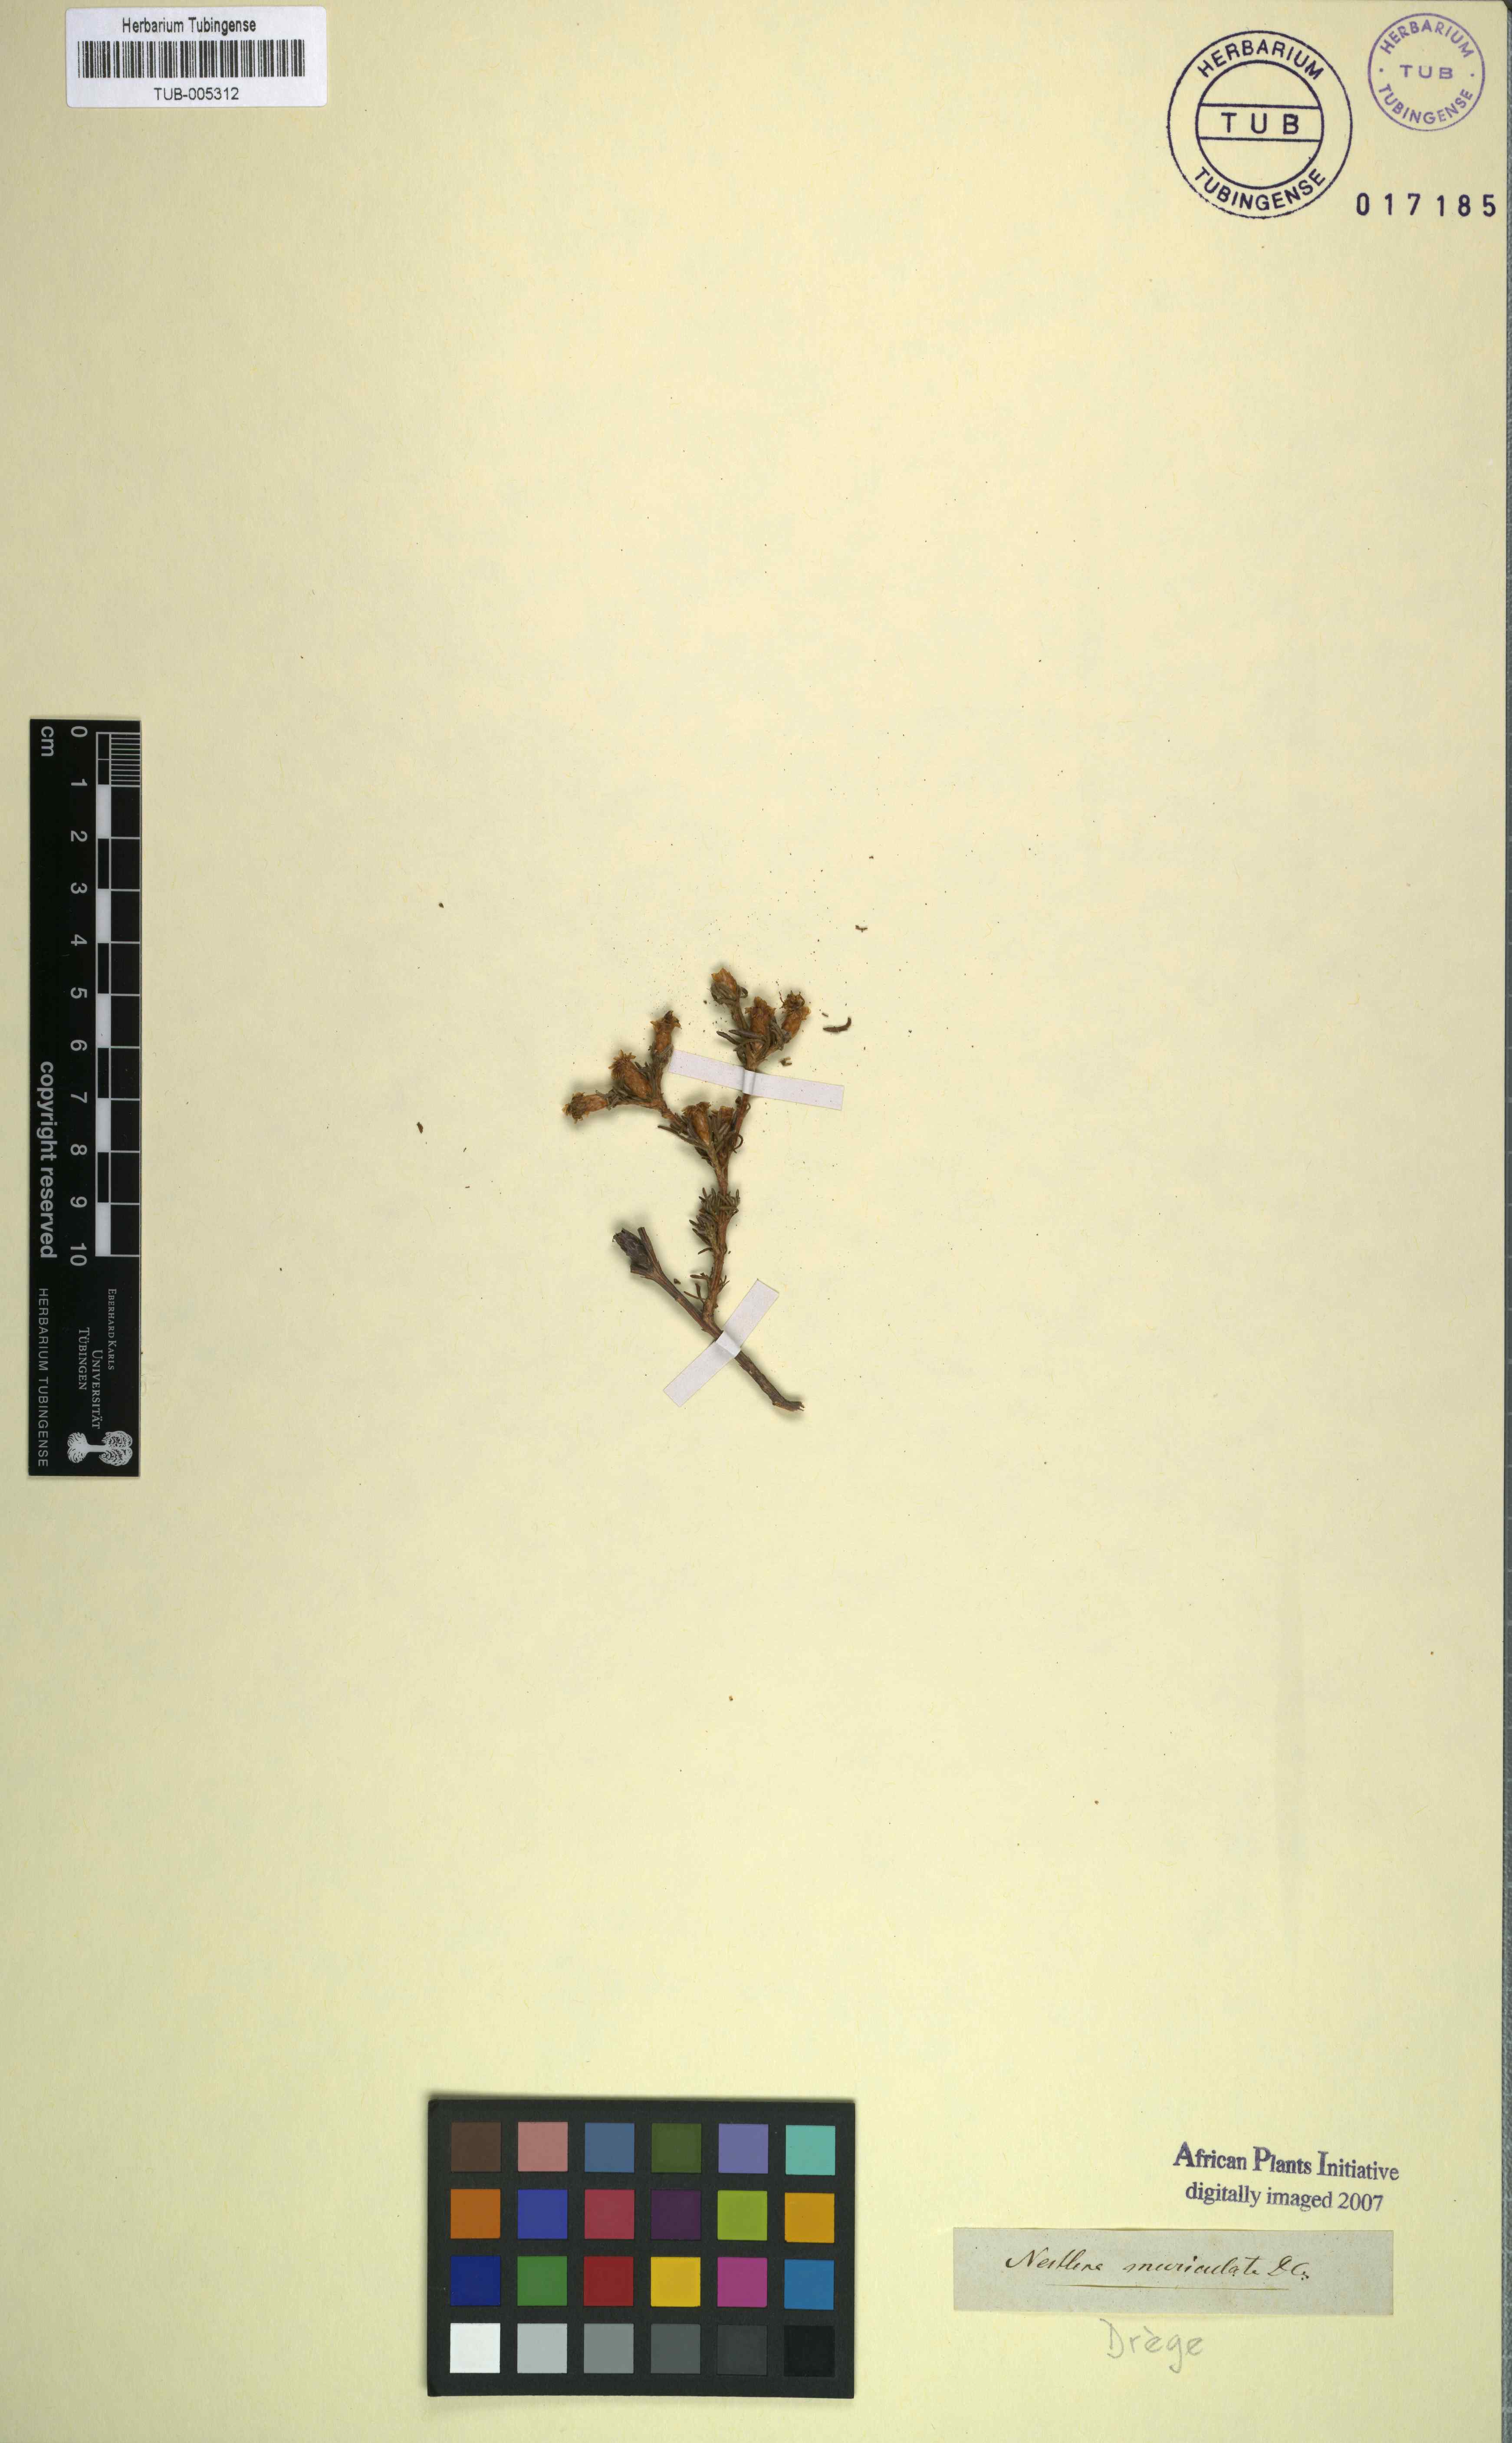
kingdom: Plantae
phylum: Tracheophyta
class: Magnoliopsida
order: Asterales
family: Asteraceae
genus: Oedera
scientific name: Oedera humilis
